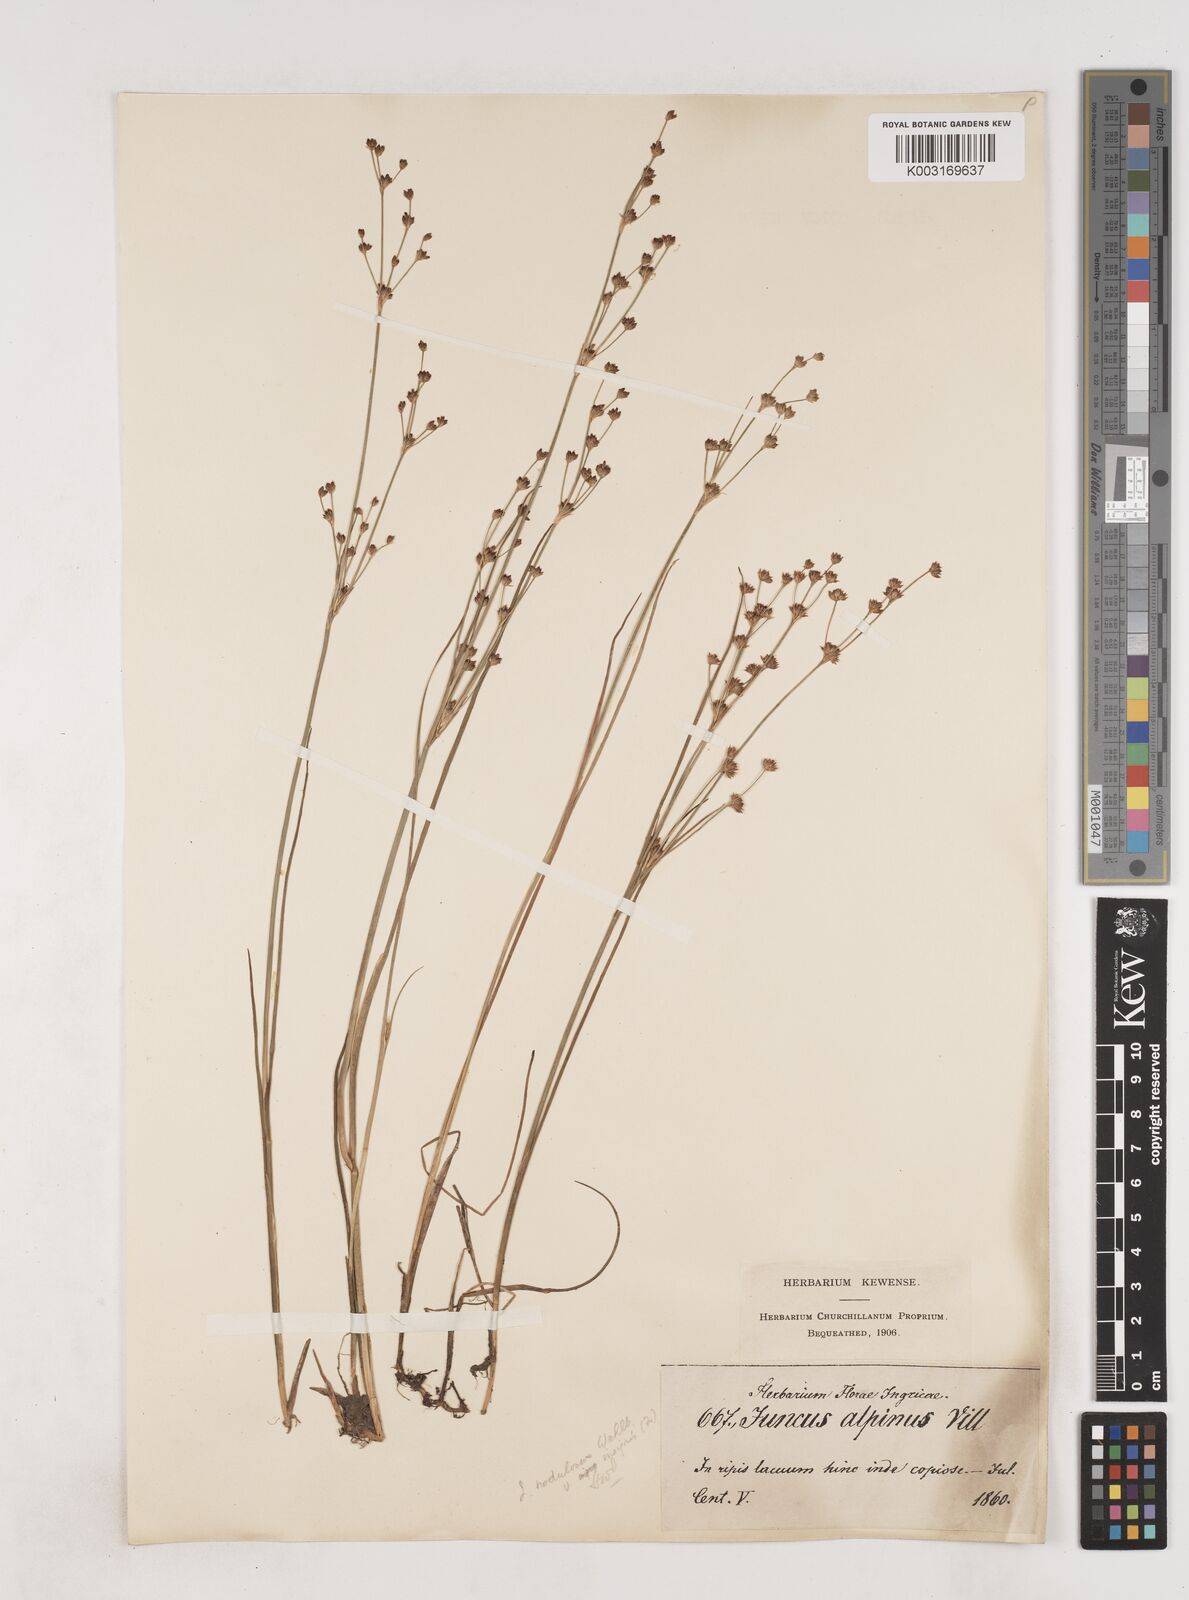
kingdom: Plantae
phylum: Tracheophyta
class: Liliopsida
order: Poales
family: Juncaceae
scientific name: Juncaceae
